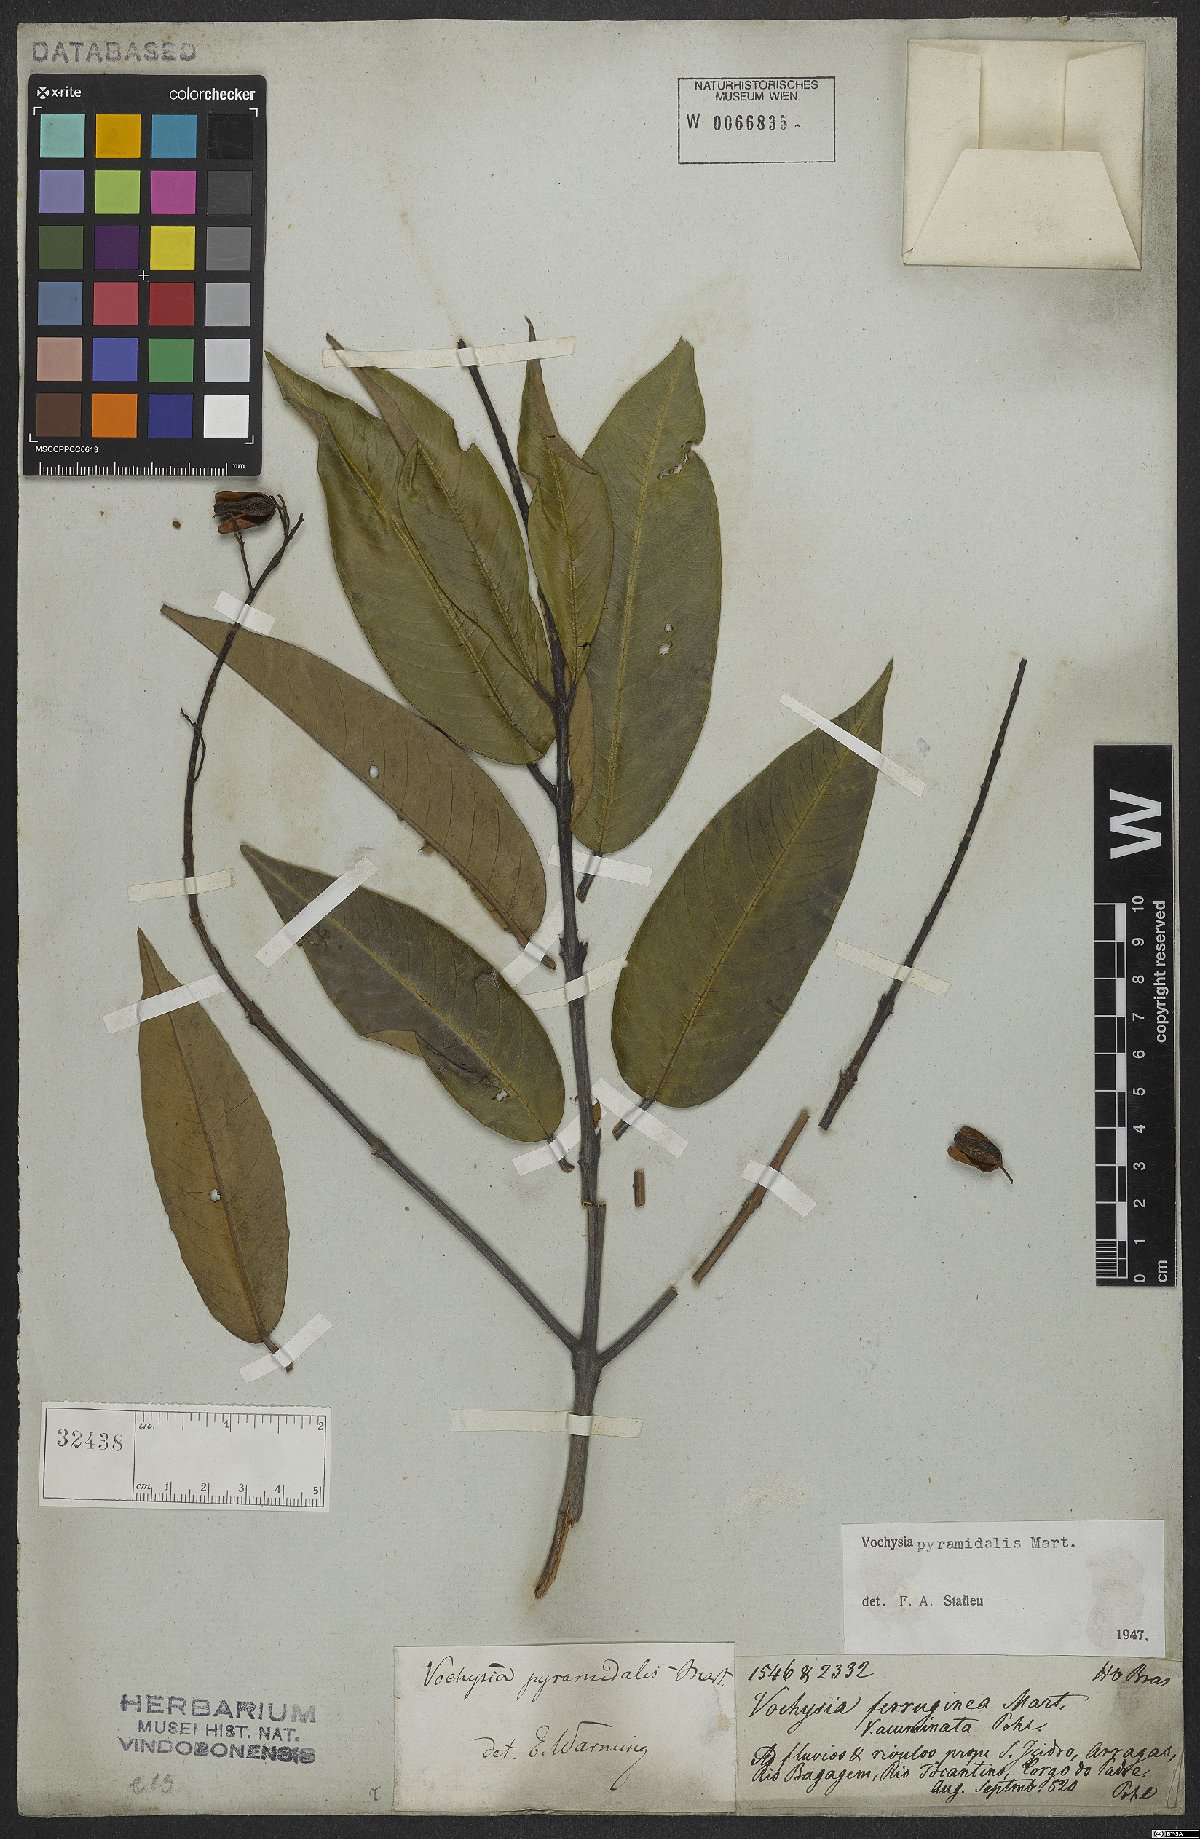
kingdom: Plantae
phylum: Tracheophyta
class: Magnoliopsida
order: Myrtales
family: Vochysiaceae
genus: Vochysia
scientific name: Vochysia pyramidalis
